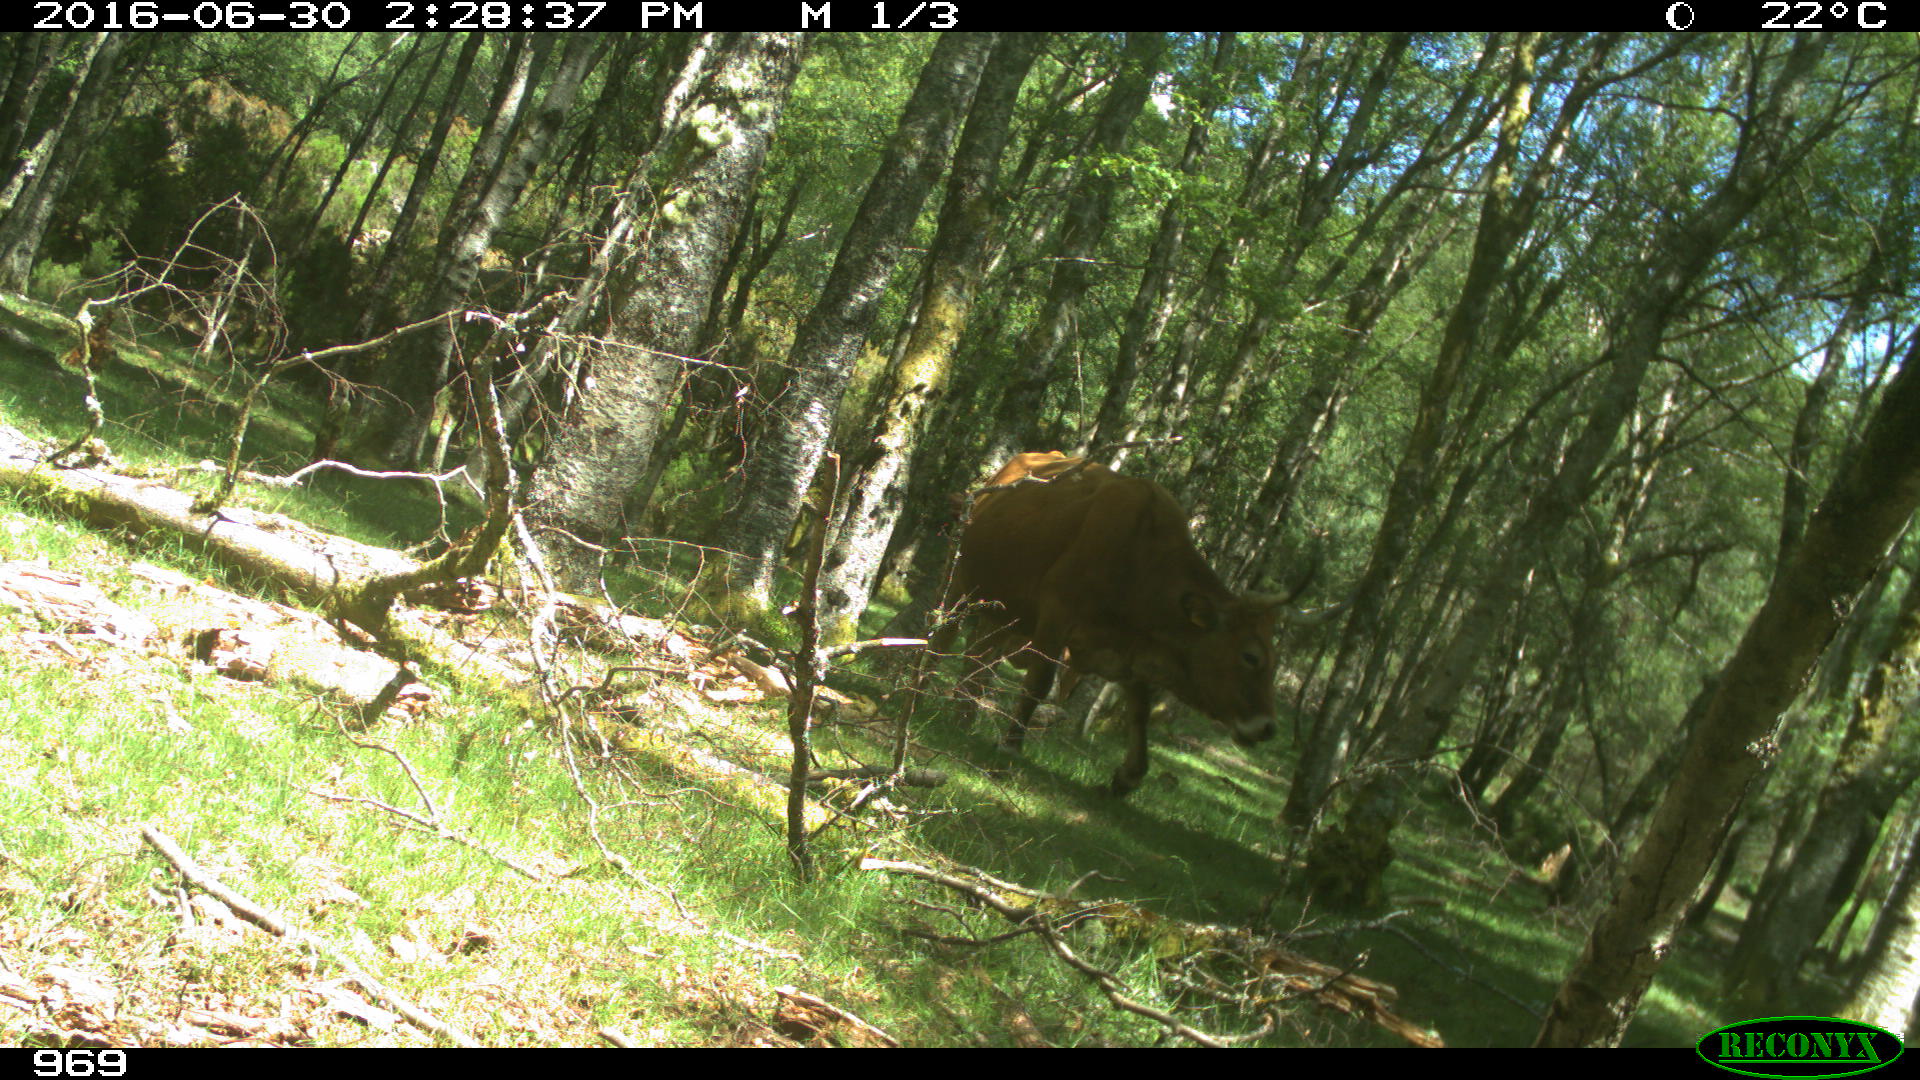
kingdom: Animalia
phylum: Chordata
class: Mammalia
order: Artiodactyla
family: Bovidae
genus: Bos
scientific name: Bos taurus
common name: Domesticated cattle
